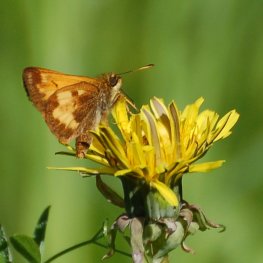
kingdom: Animalia
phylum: Arthropoda
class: Insecta
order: Lepidoptera
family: Hesperiidae
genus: Lon
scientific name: Lon hobomok
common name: Hobomok Skipper
